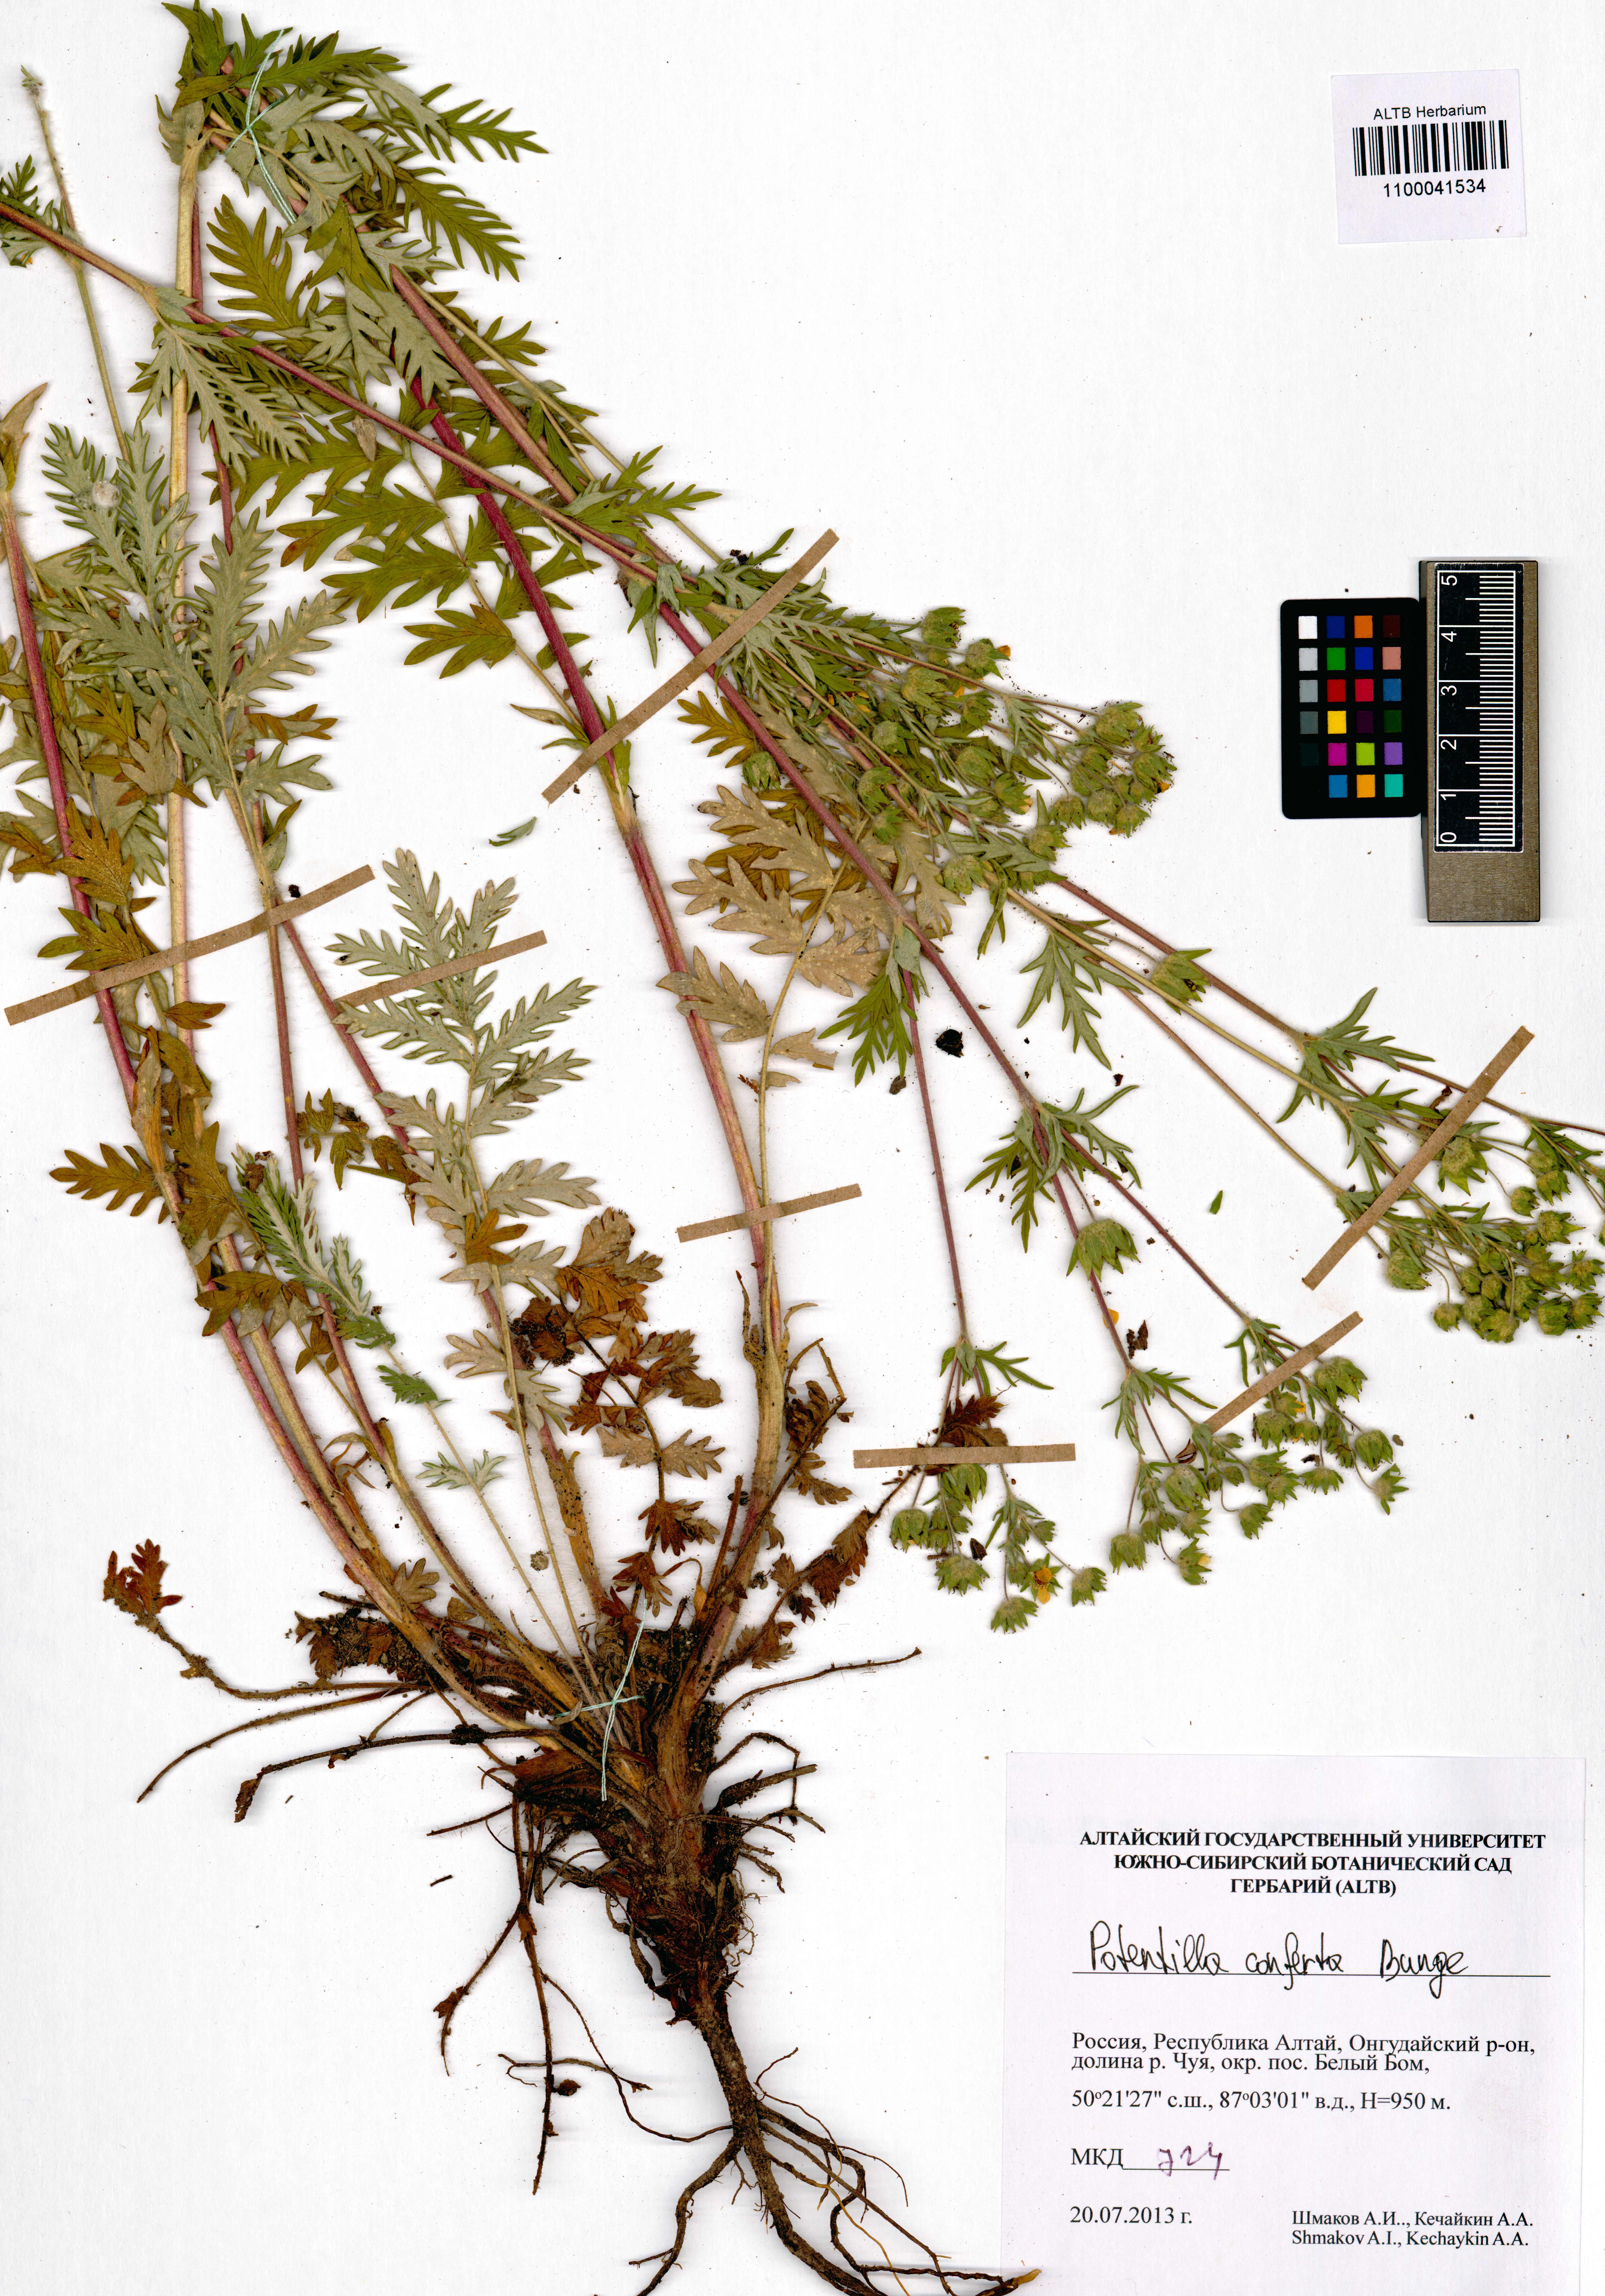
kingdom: Plantae
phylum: Tracheophyta
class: Magnoliopsida
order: Rosales
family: Rosaceae
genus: Potentilla
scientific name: Potentilla conferta
